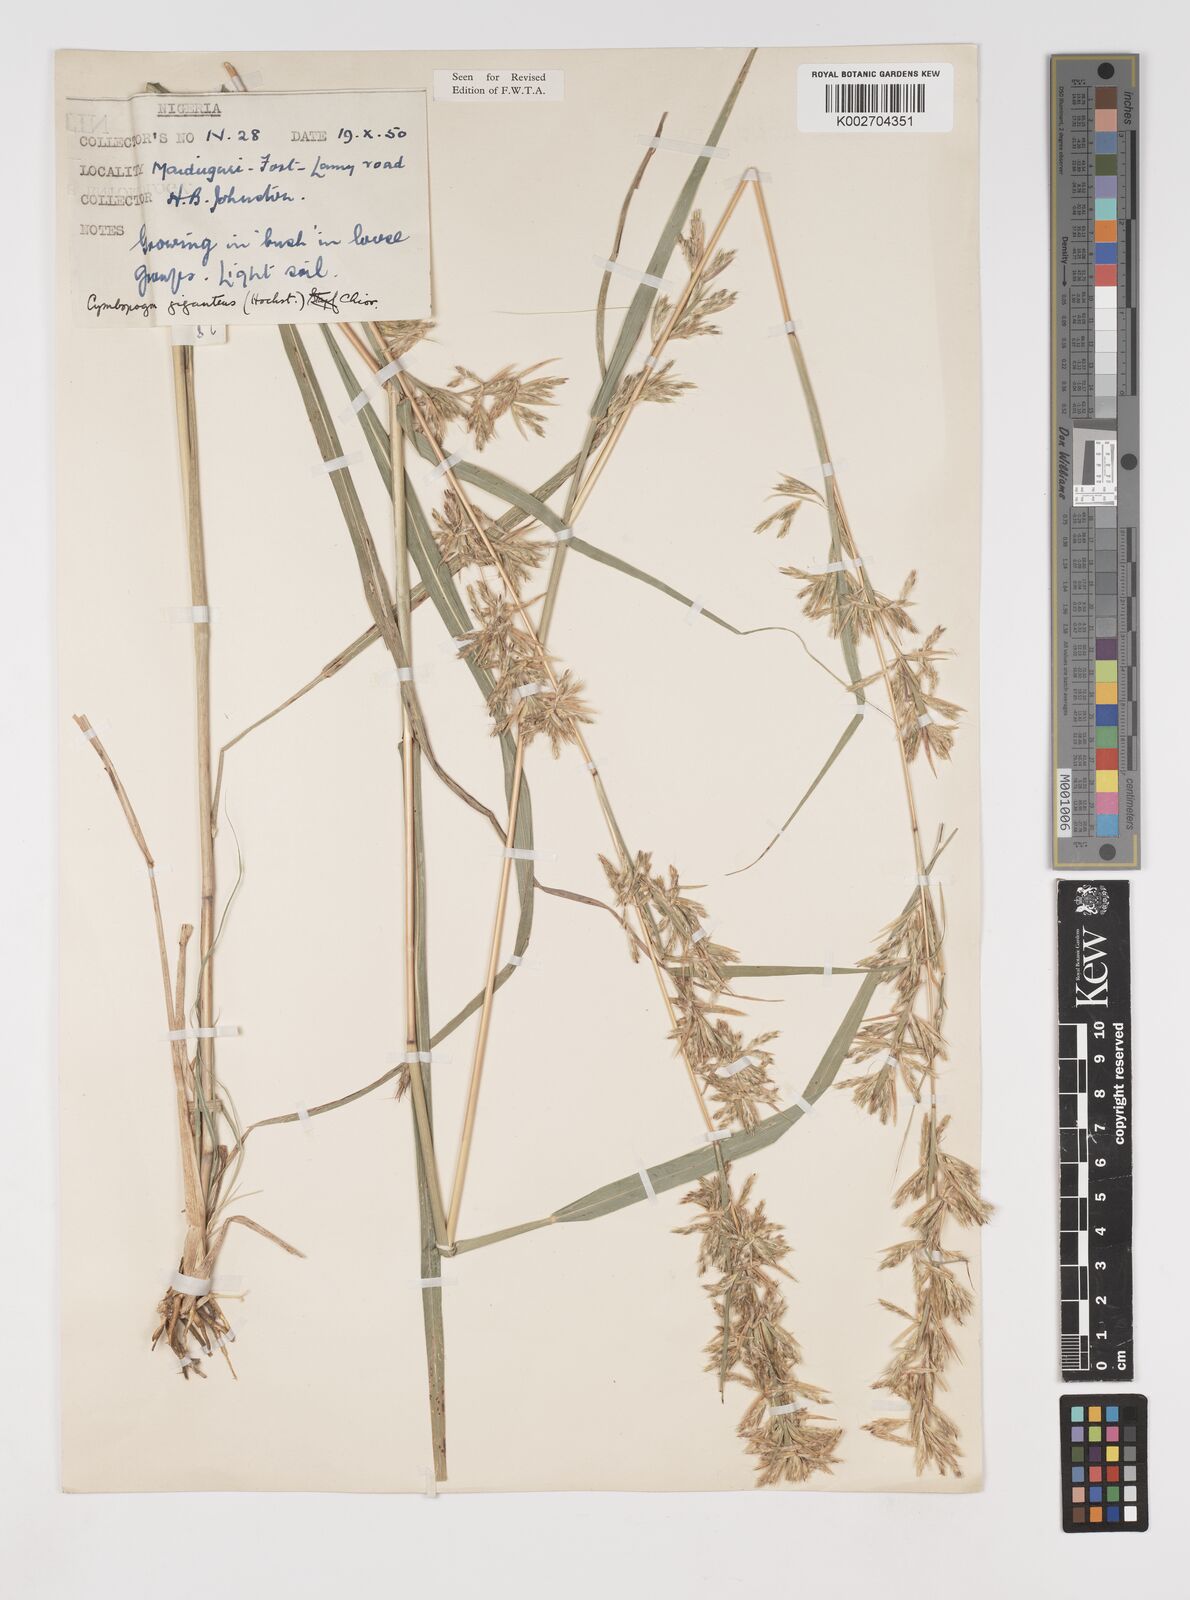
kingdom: Plantae
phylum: Tracheophyta
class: Liliopsida
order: Poales
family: Poaceae
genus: Cymbopogon
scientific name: Cymbopogon giganteus
